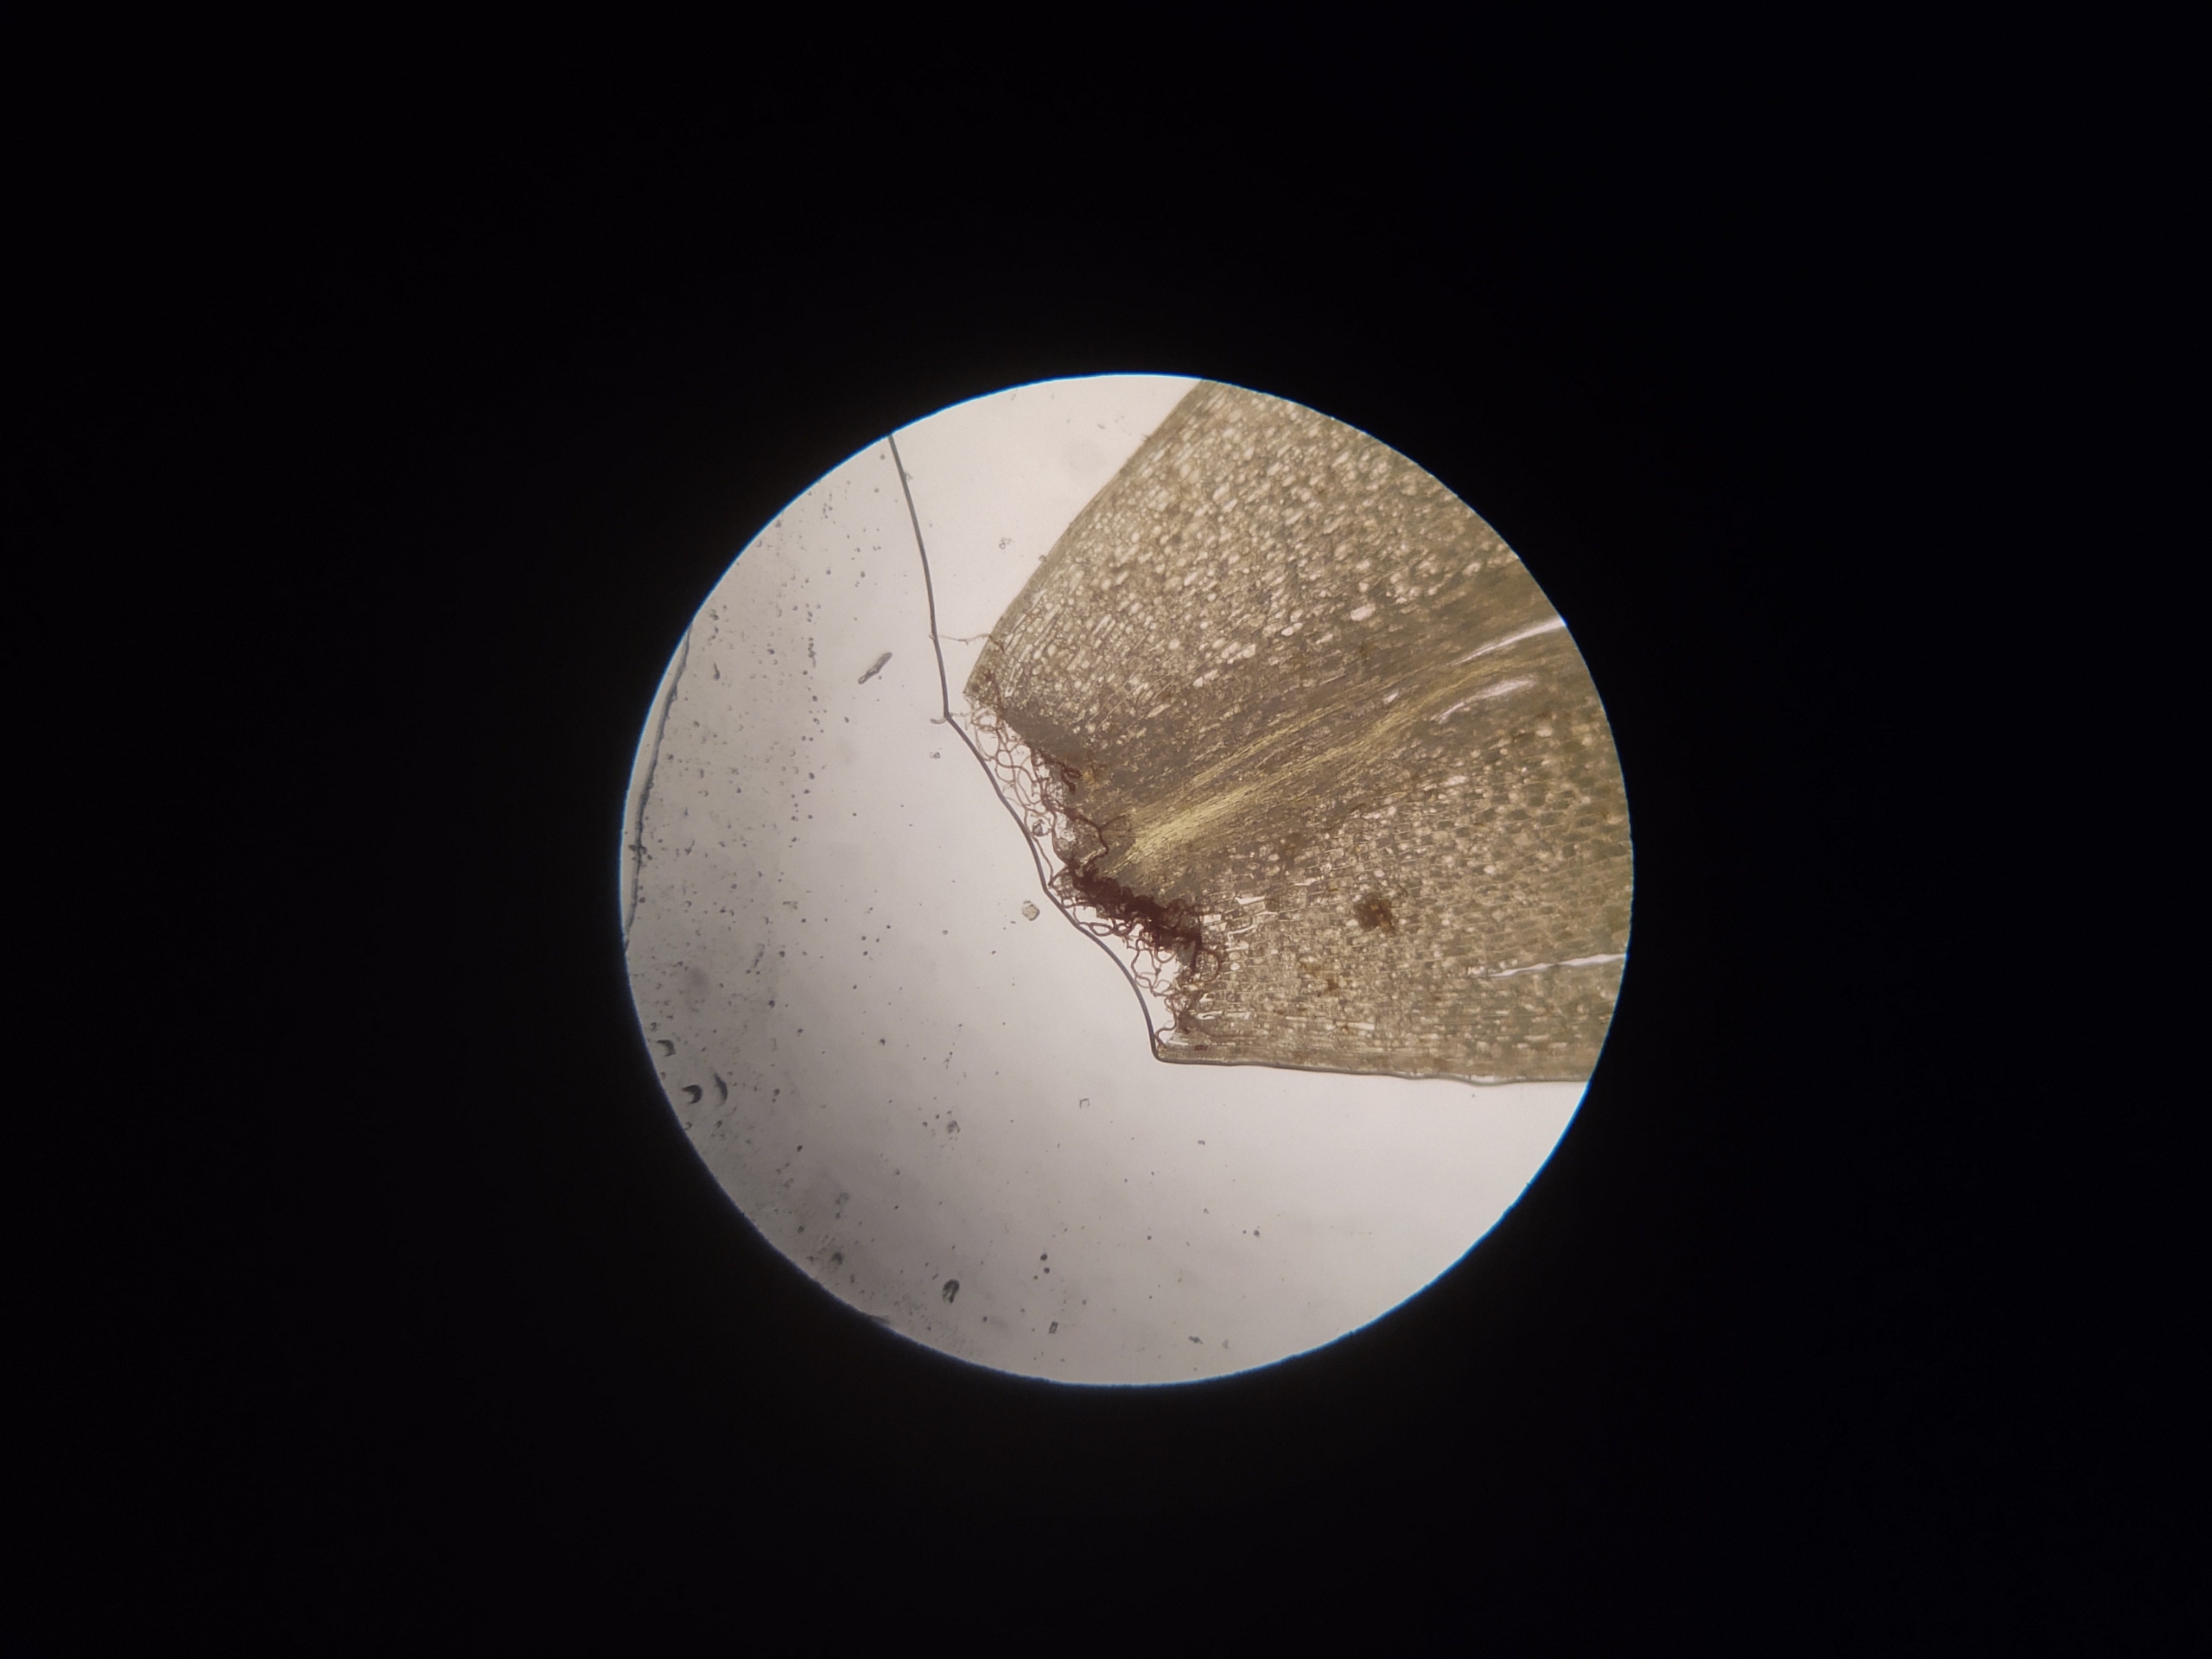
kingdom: Plantae
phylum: Bryophyta
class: Bryopsida
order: Bryales
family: Bryaceae
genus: Rhodobryum
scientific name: Rhodobryum roseum
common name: Stor rosetmos
